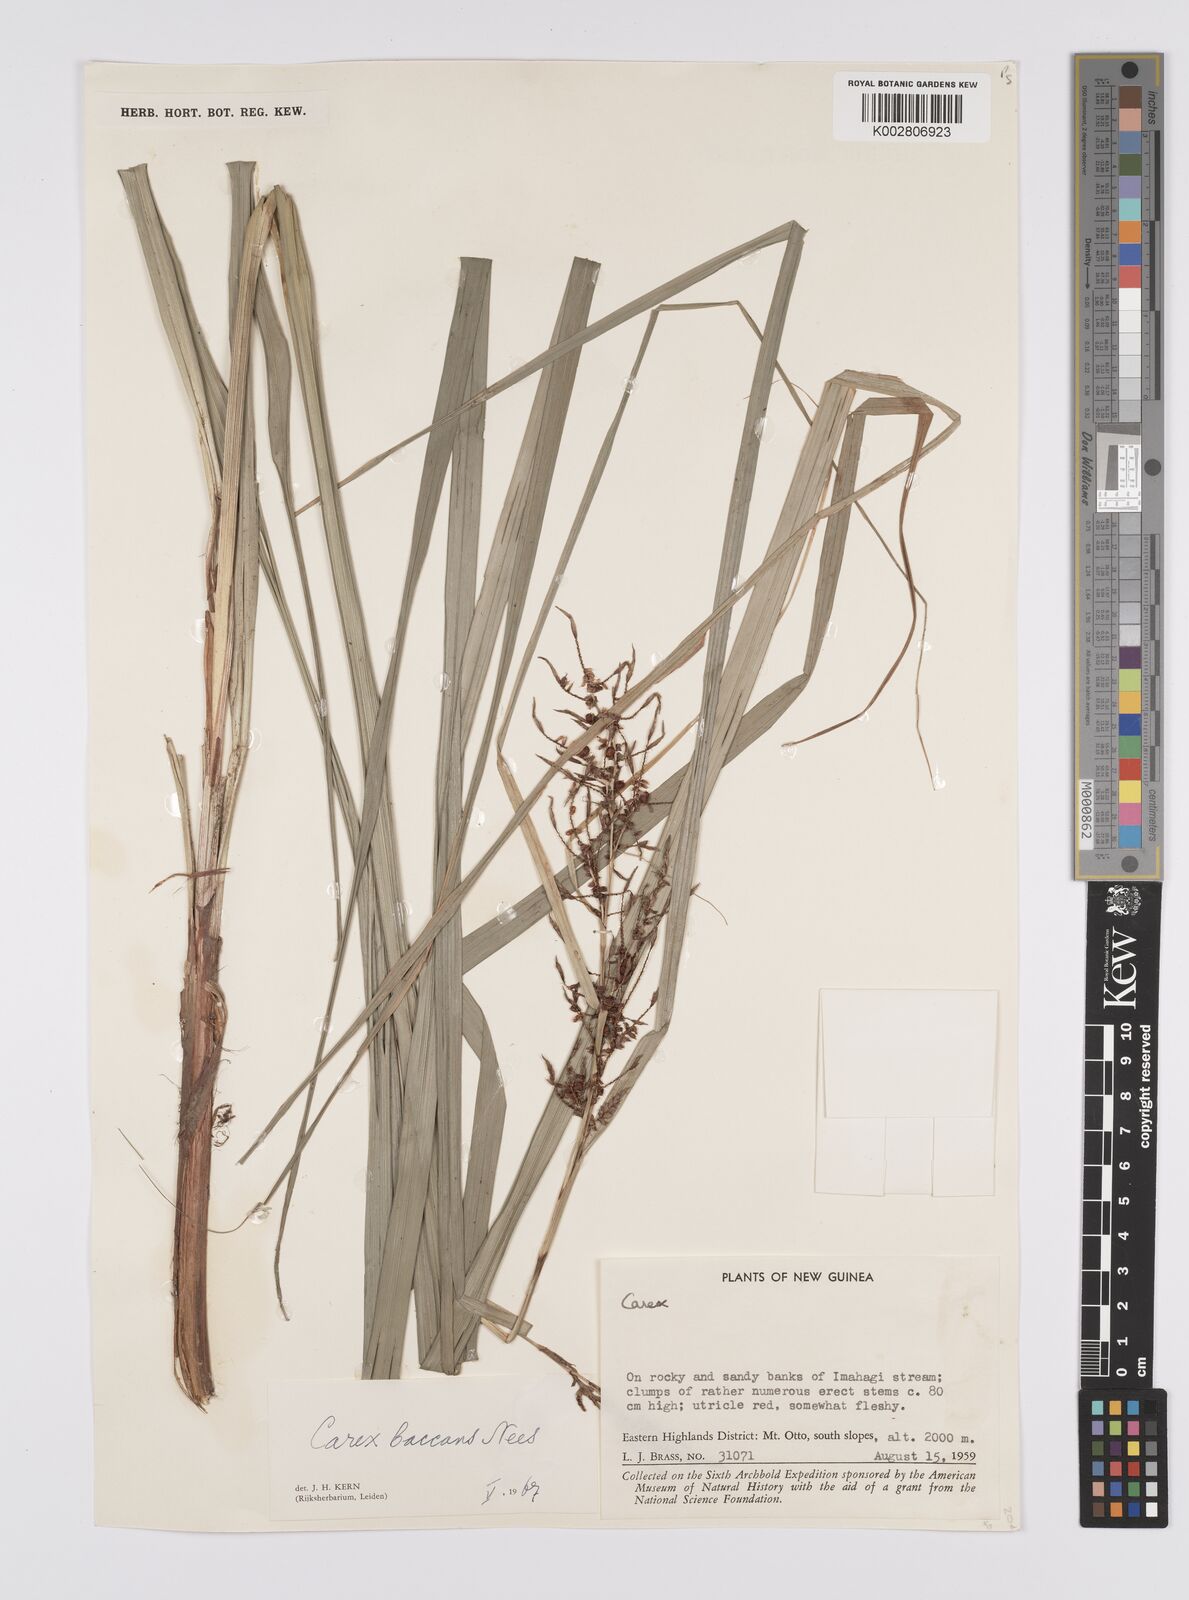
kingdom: Plantae
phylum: Tracheophyta
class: Liliopsida
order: Poales
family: Cyperaceae
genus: Carex
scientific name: Carex baccans
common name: Crimson seeded sedge
